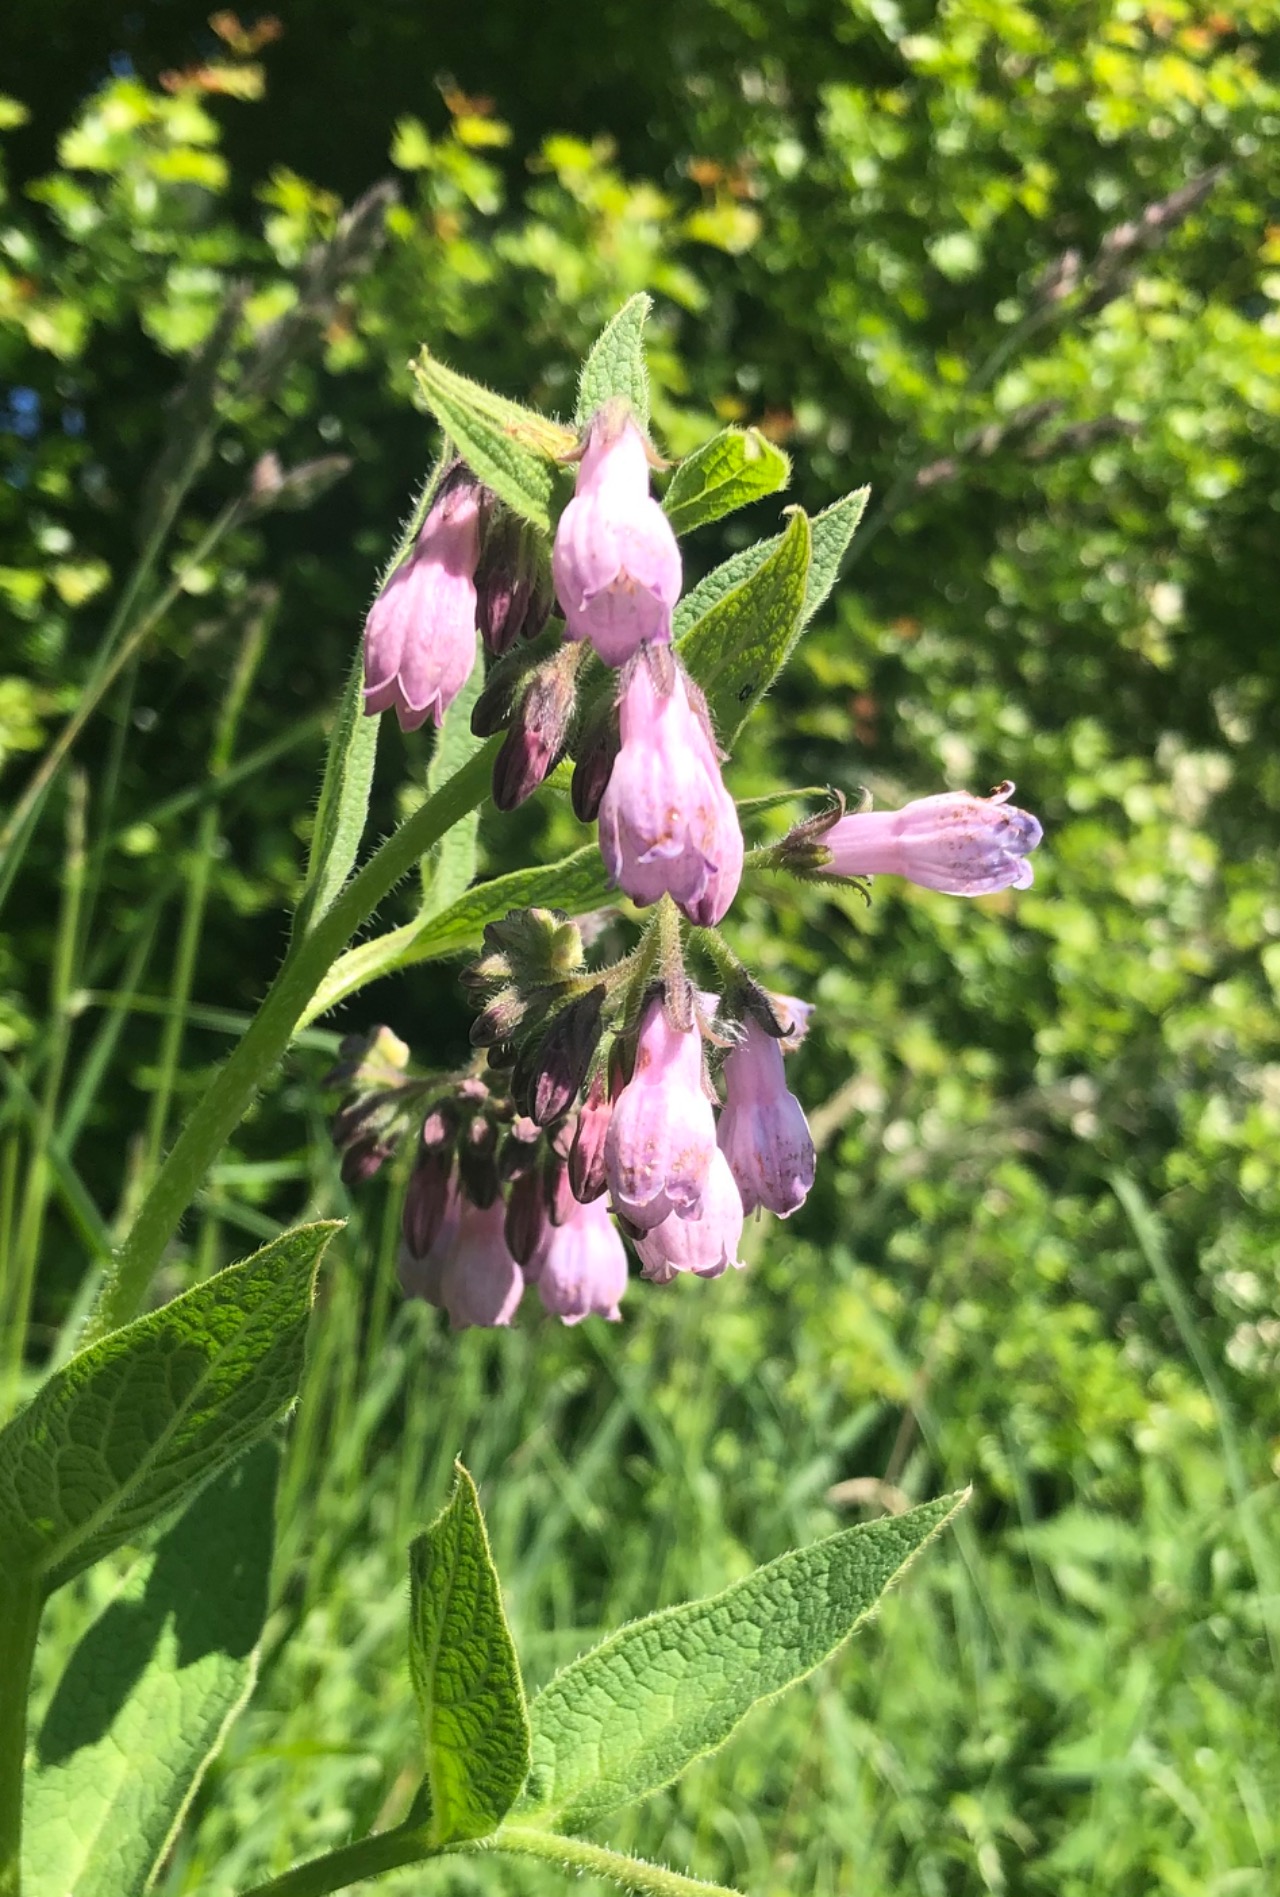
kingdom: Plantae
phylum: Tracheophyta
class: Magnoliopsida
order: Boraginales
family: Boraginaceae
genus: Symphytum
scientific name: Symphytum uplandicum
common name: Foder-kulsukker
